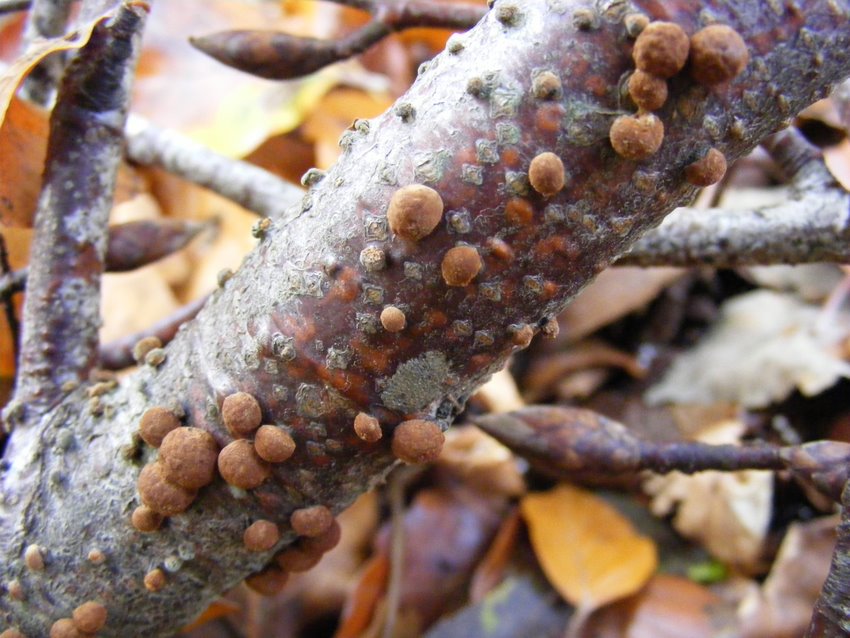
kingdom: Fungi
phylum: Ascomycota
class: Sordariomycetes
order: Xylariales
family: Hypoxylaceae
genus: Hypoxylon
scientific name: Hypoxylon fragiforme
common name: kuljordbær
